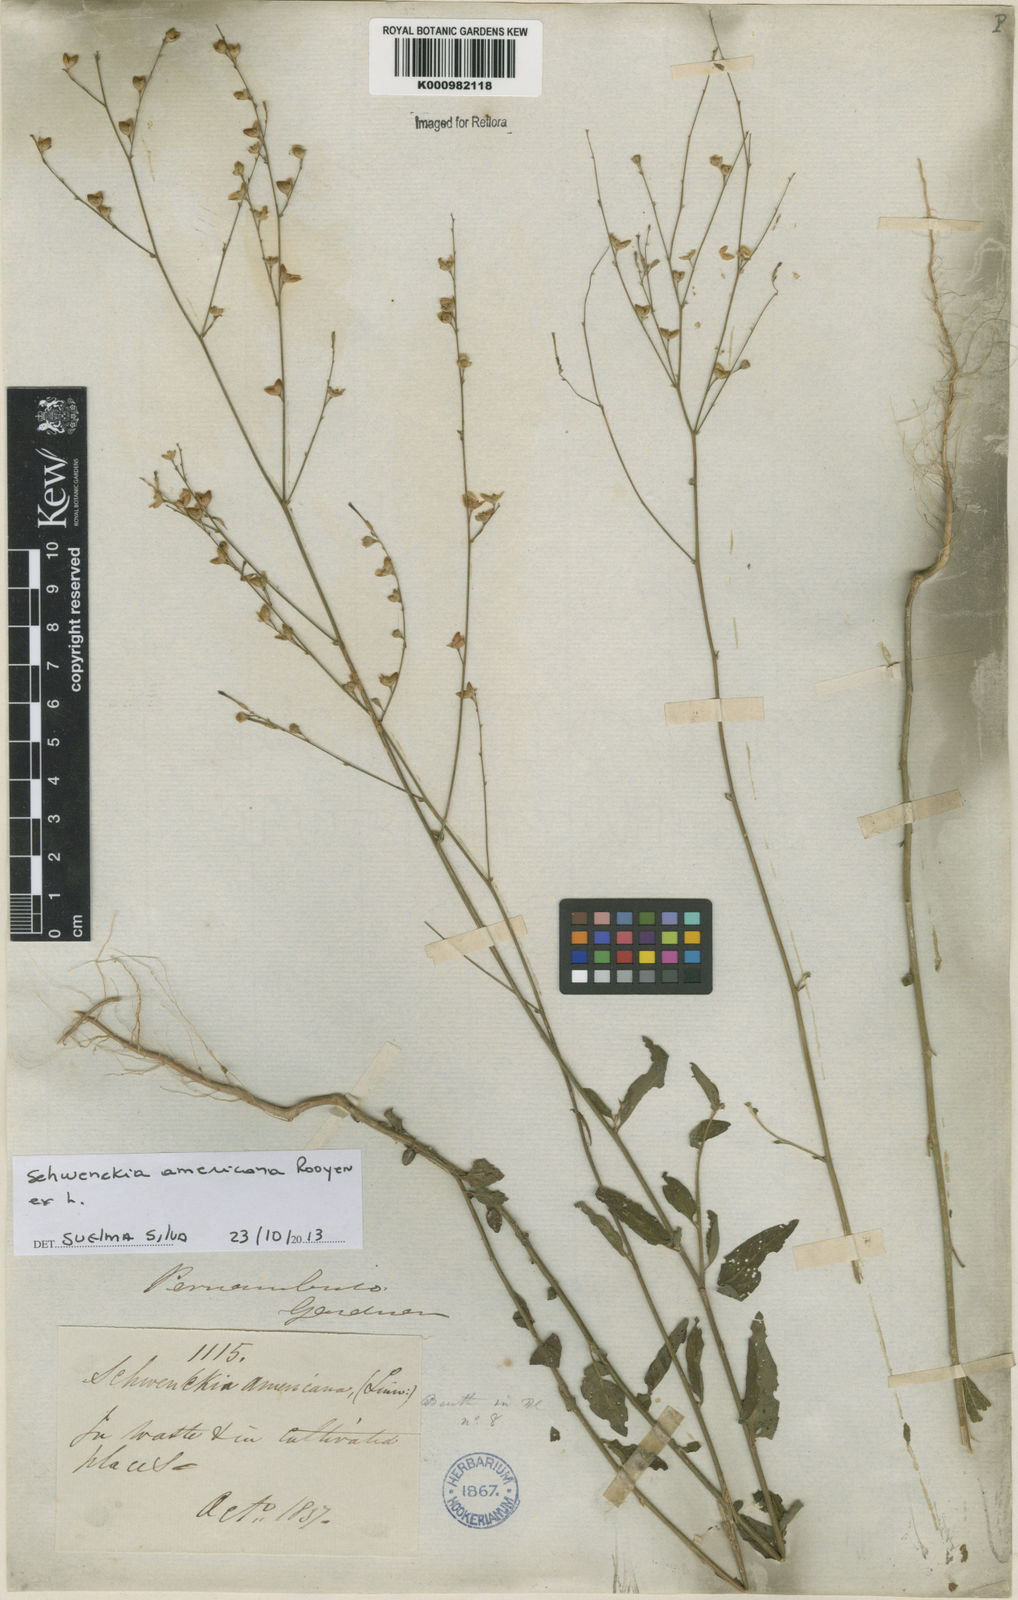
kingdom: Plantae
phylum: Tracheophyta
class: Magnoliopsida
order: Solanales
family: Solanaceae
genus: Schwenckia
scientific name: Schwenckia americana
